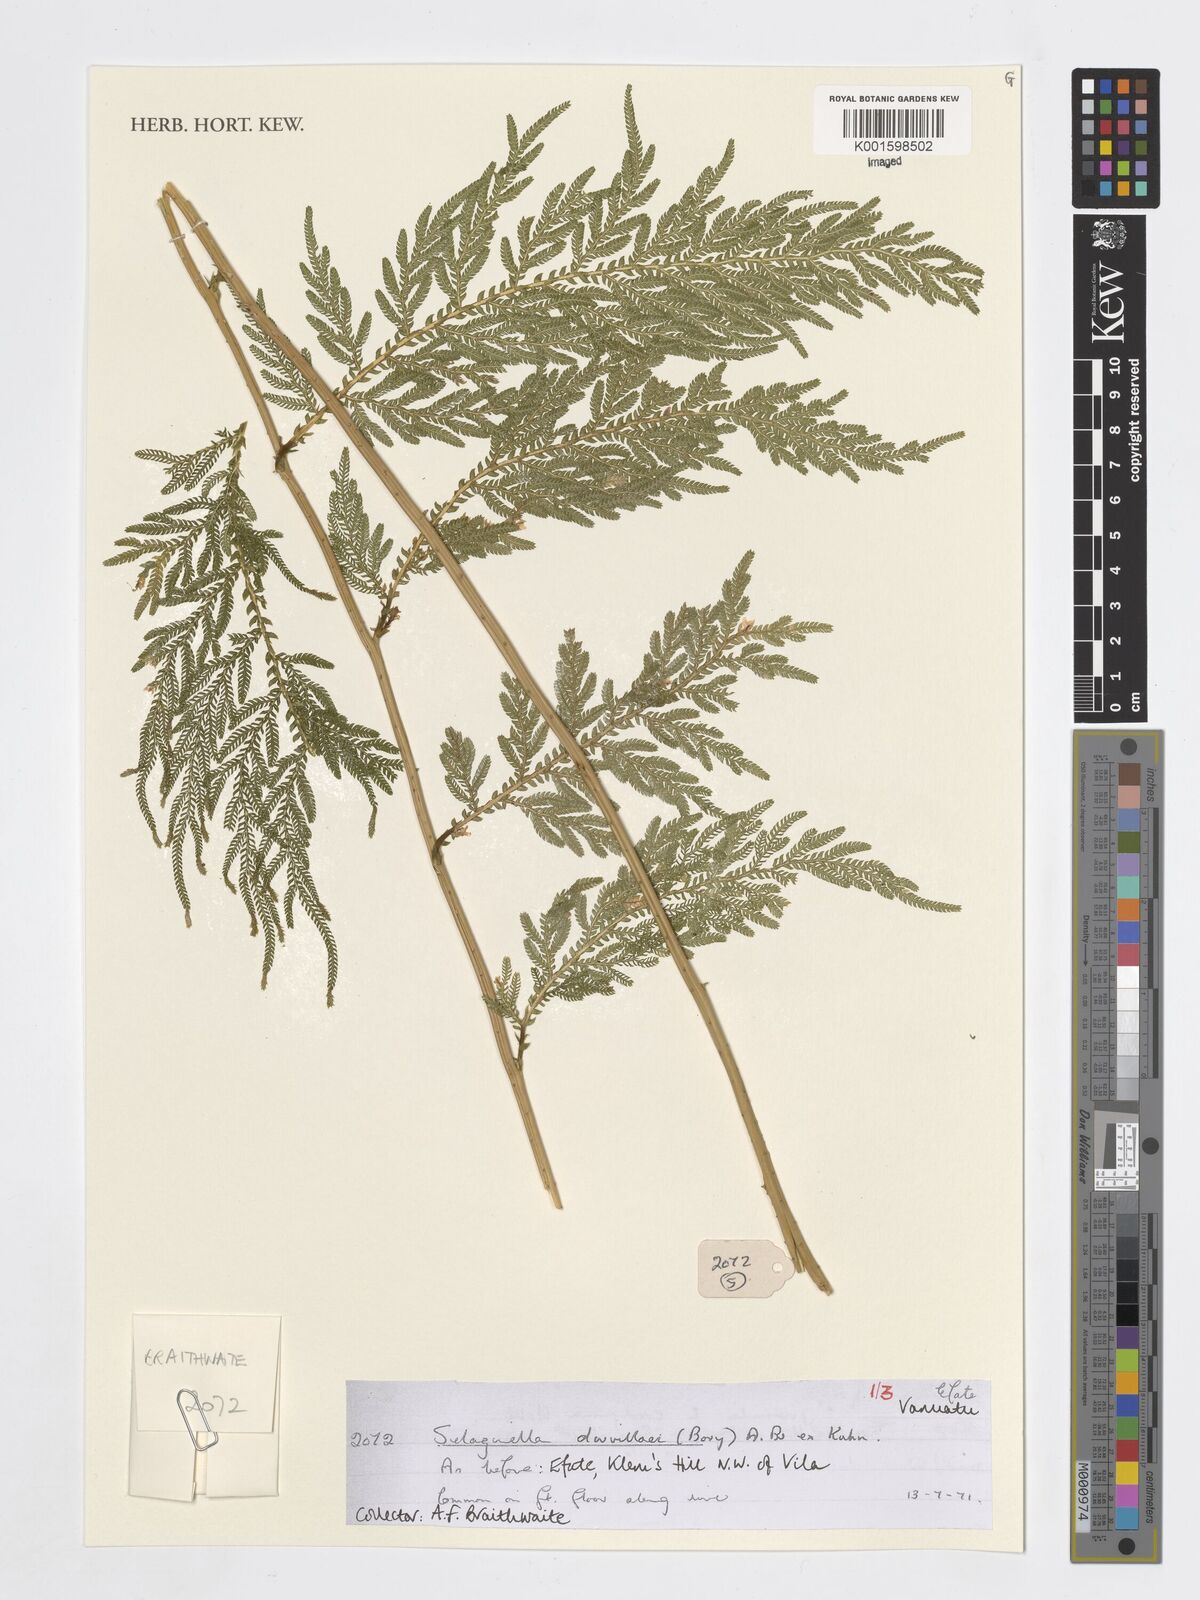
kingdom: Plantae
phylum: Tracheophyta
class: Lycopodiopsida
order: Selaginellales
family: Selaginellaceae
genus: Selaginella
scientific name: Selaginella
